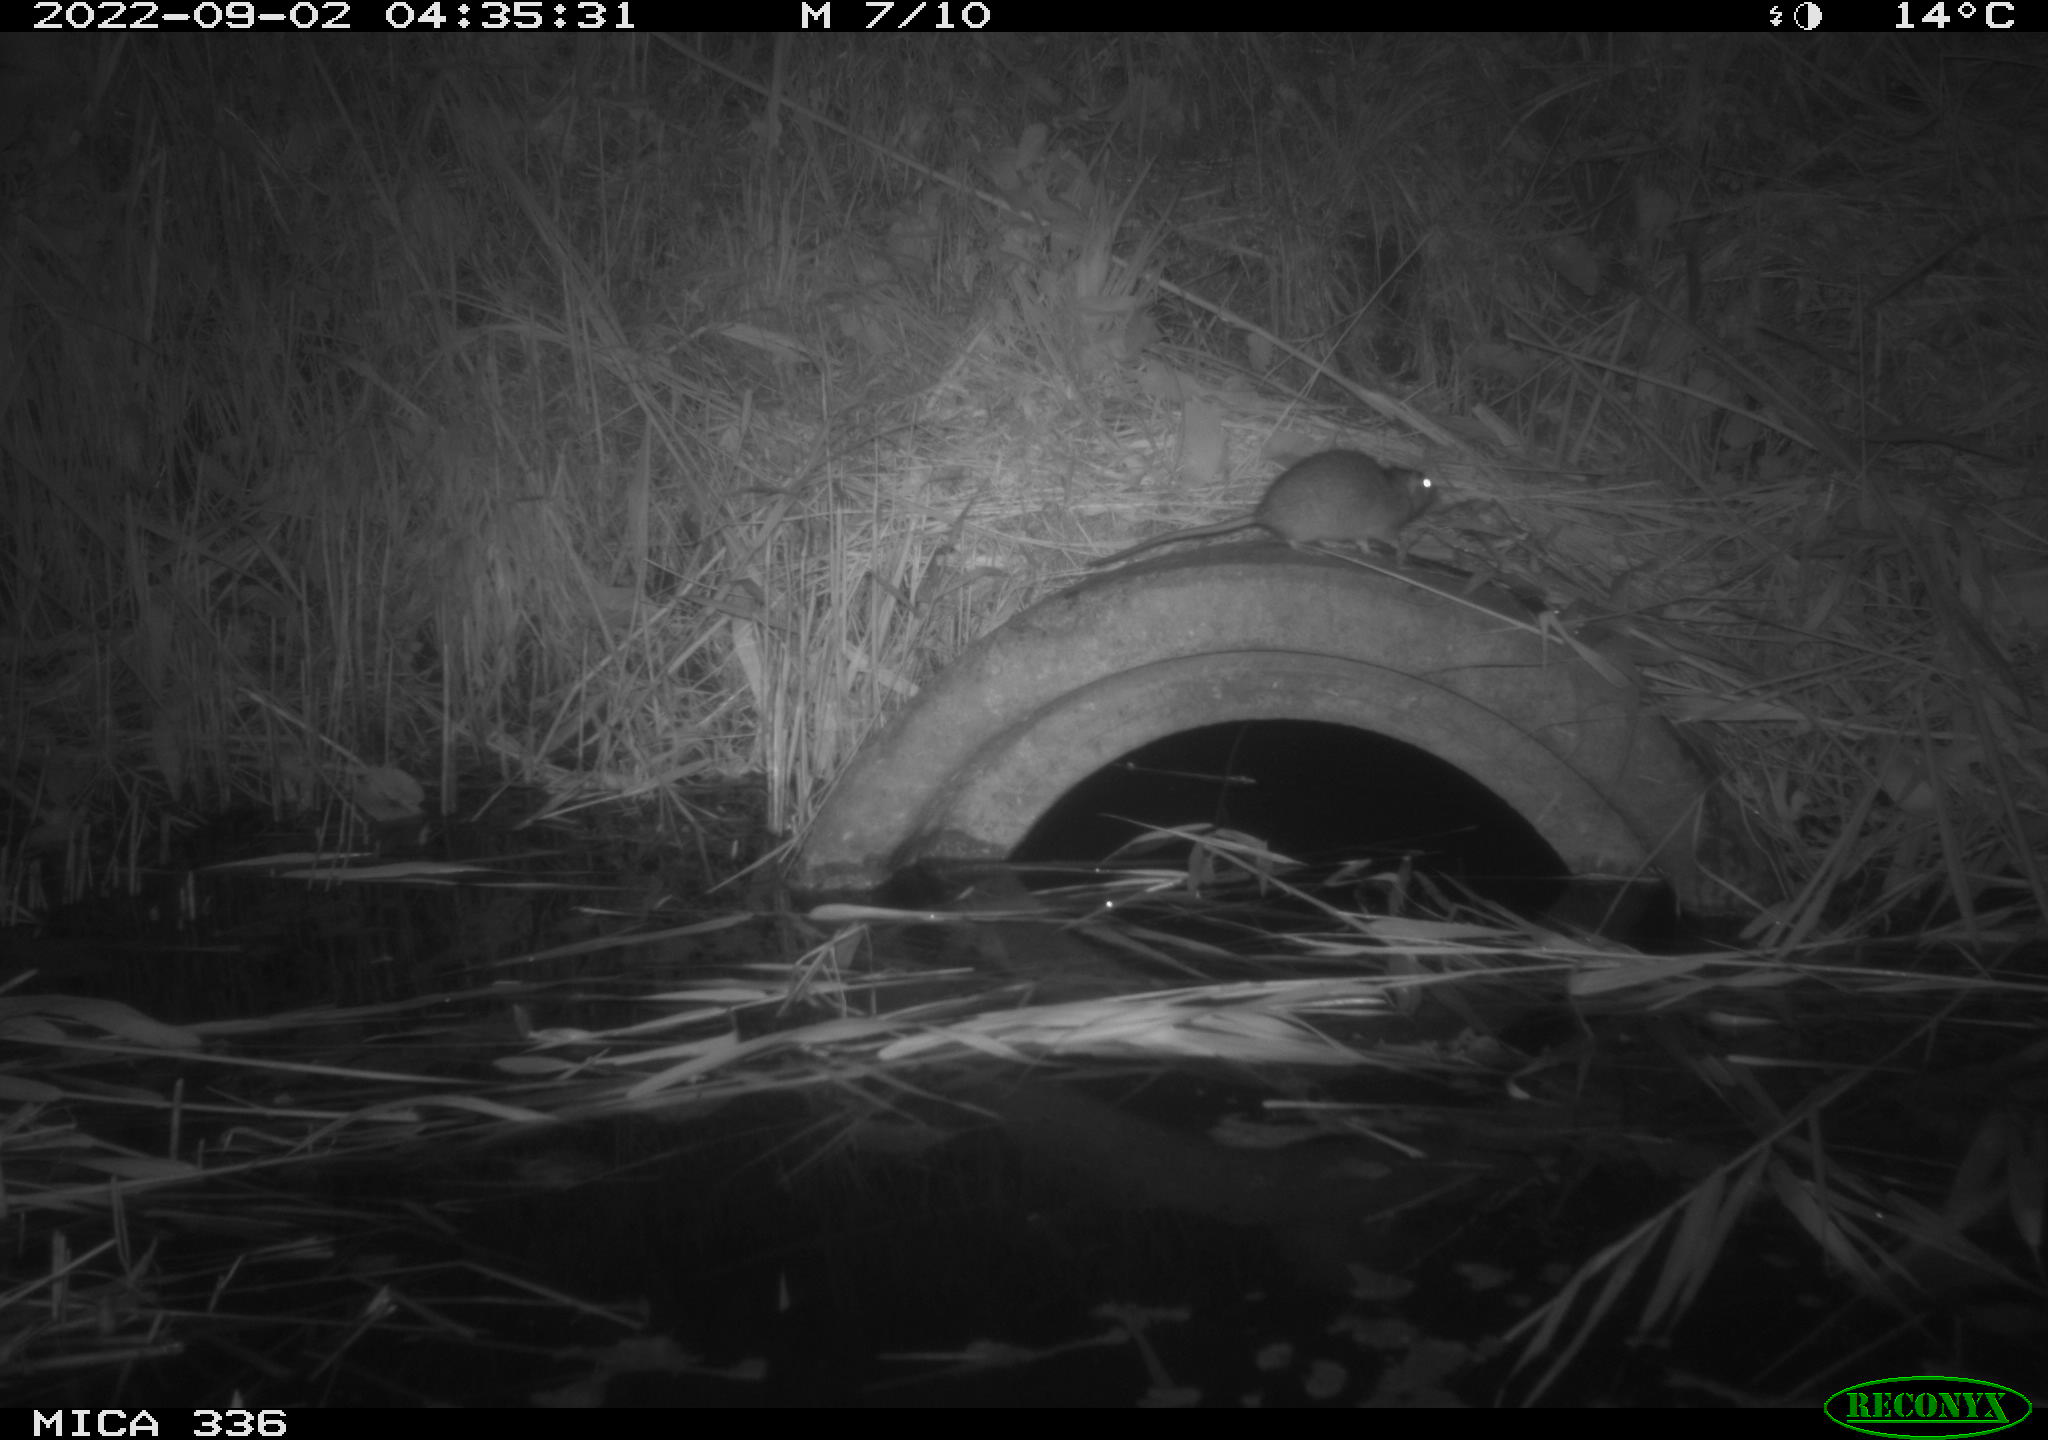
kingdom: Animalia
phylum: Chordata
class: Mammalia
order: Rodentia
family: Muridae
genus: Rattus
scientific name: Rattus norvegicus
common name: Brown rat
